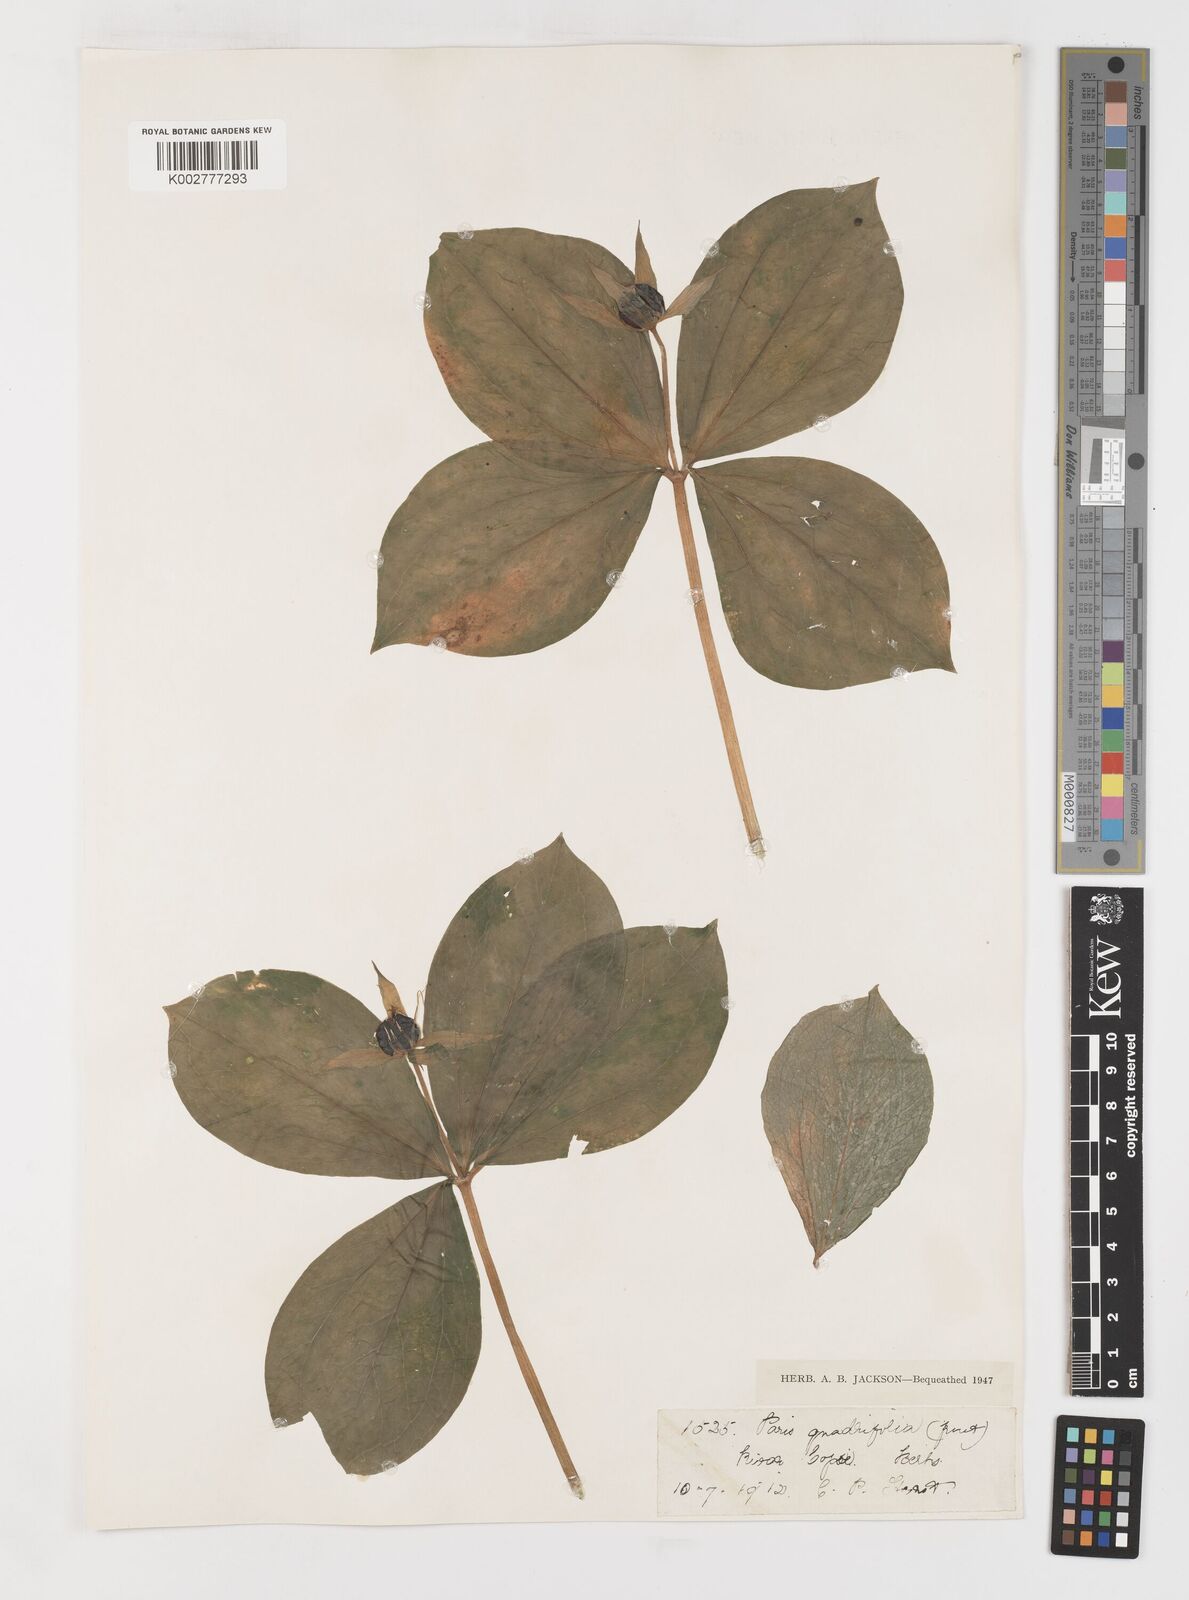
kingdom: Plantae
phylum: Tracheophyta
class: Liliopsida
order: Liliales
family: Melanthiaceae
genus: Paris
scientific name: Paris quadrifolia
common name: Herb-paris
